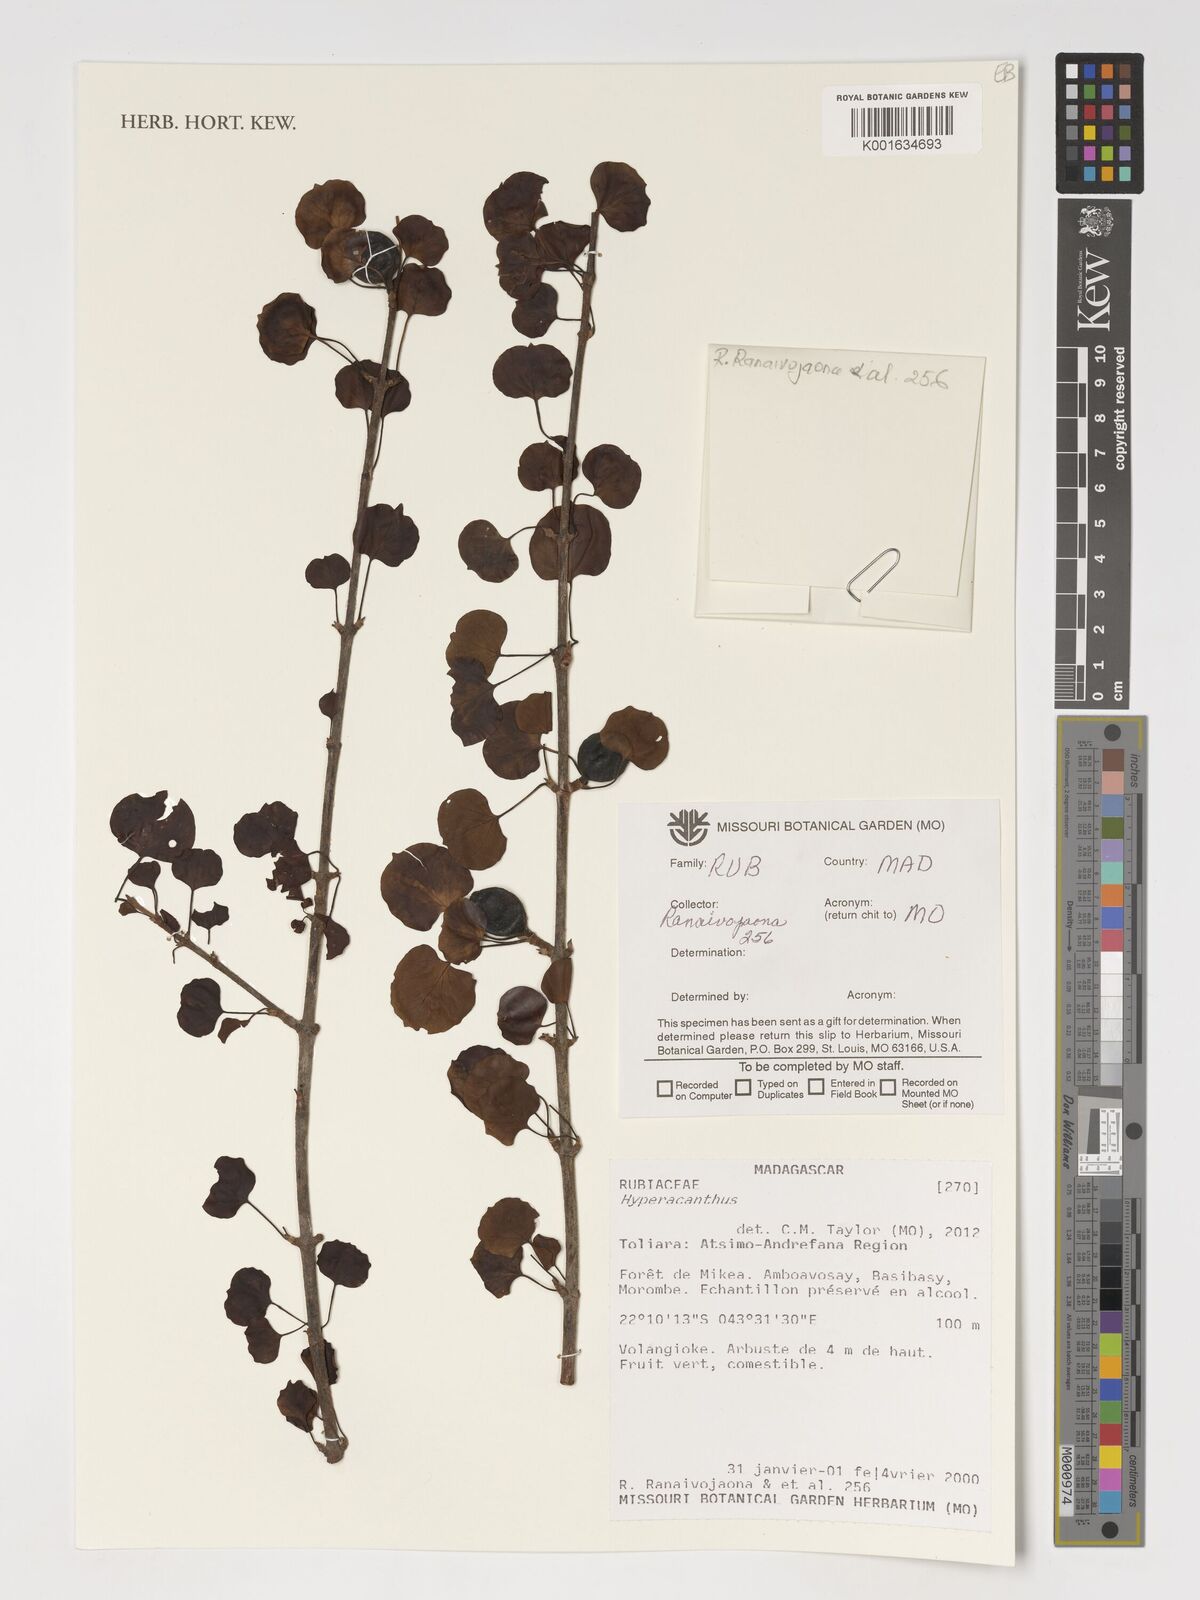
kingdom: Plantae
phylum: Tracheophyta
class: Magnoliopsida
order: Gentianales
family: Rubiaceae
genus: Hyperacanthus
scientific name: Hyperacanthus
